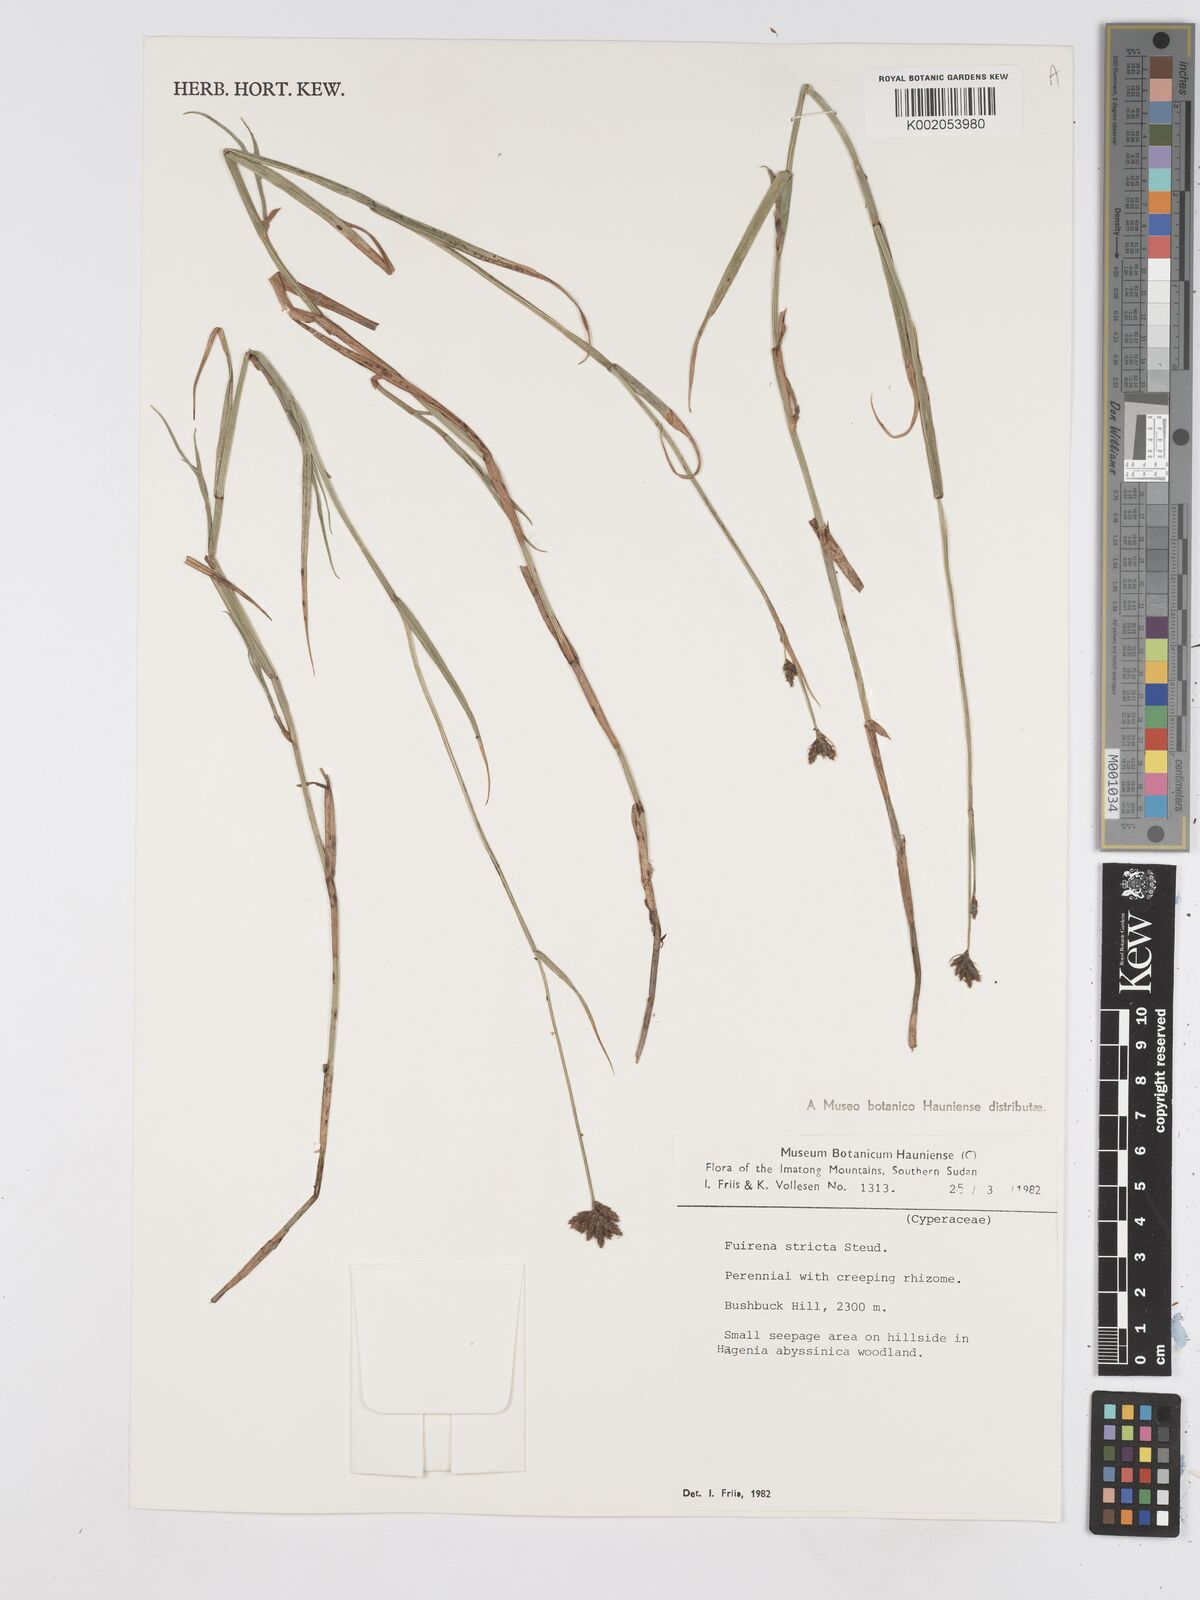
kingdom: Plantae
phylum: Tracheophyta
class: Liliopsida
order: Poales
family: Cyperaceae
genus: Fuirena
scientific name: Fuirena stricta
